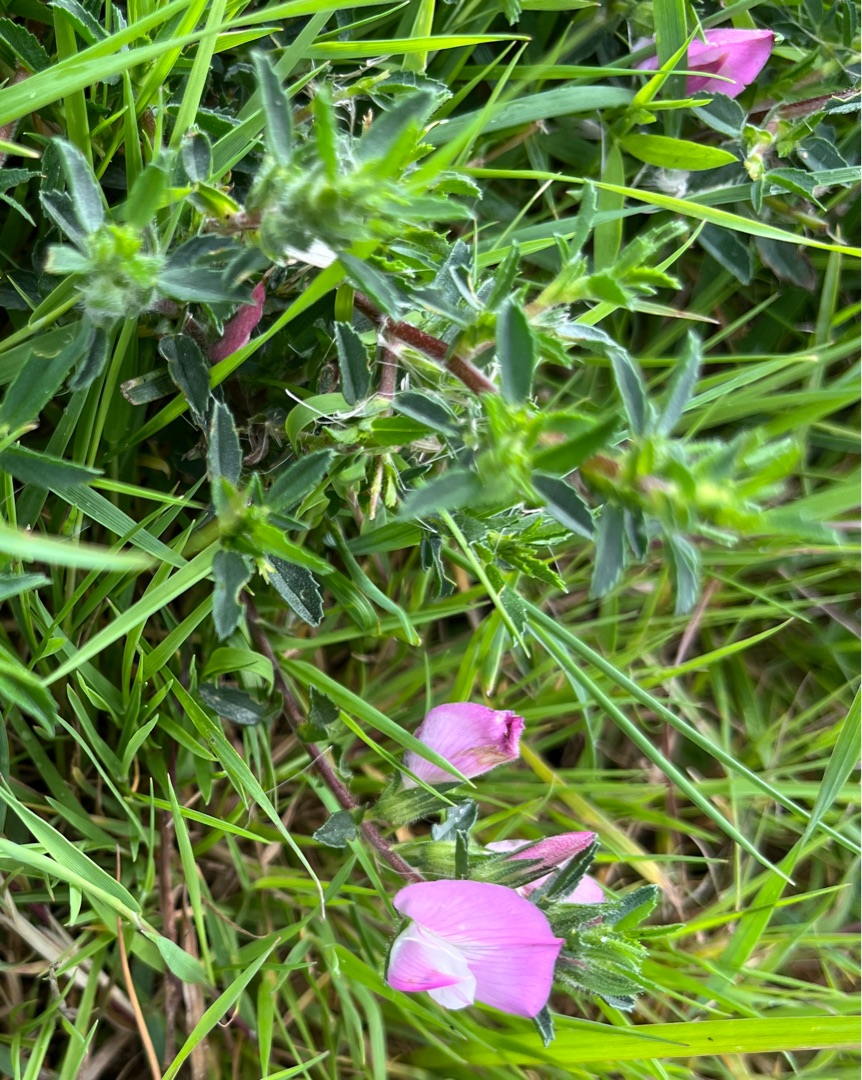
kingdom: Plantae
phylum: Tracheophyta
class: Magnoliopsida
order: Fabales
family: Fabaceae
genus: Ononis
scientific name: Ononis spinosa
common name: Strand-krageklo
